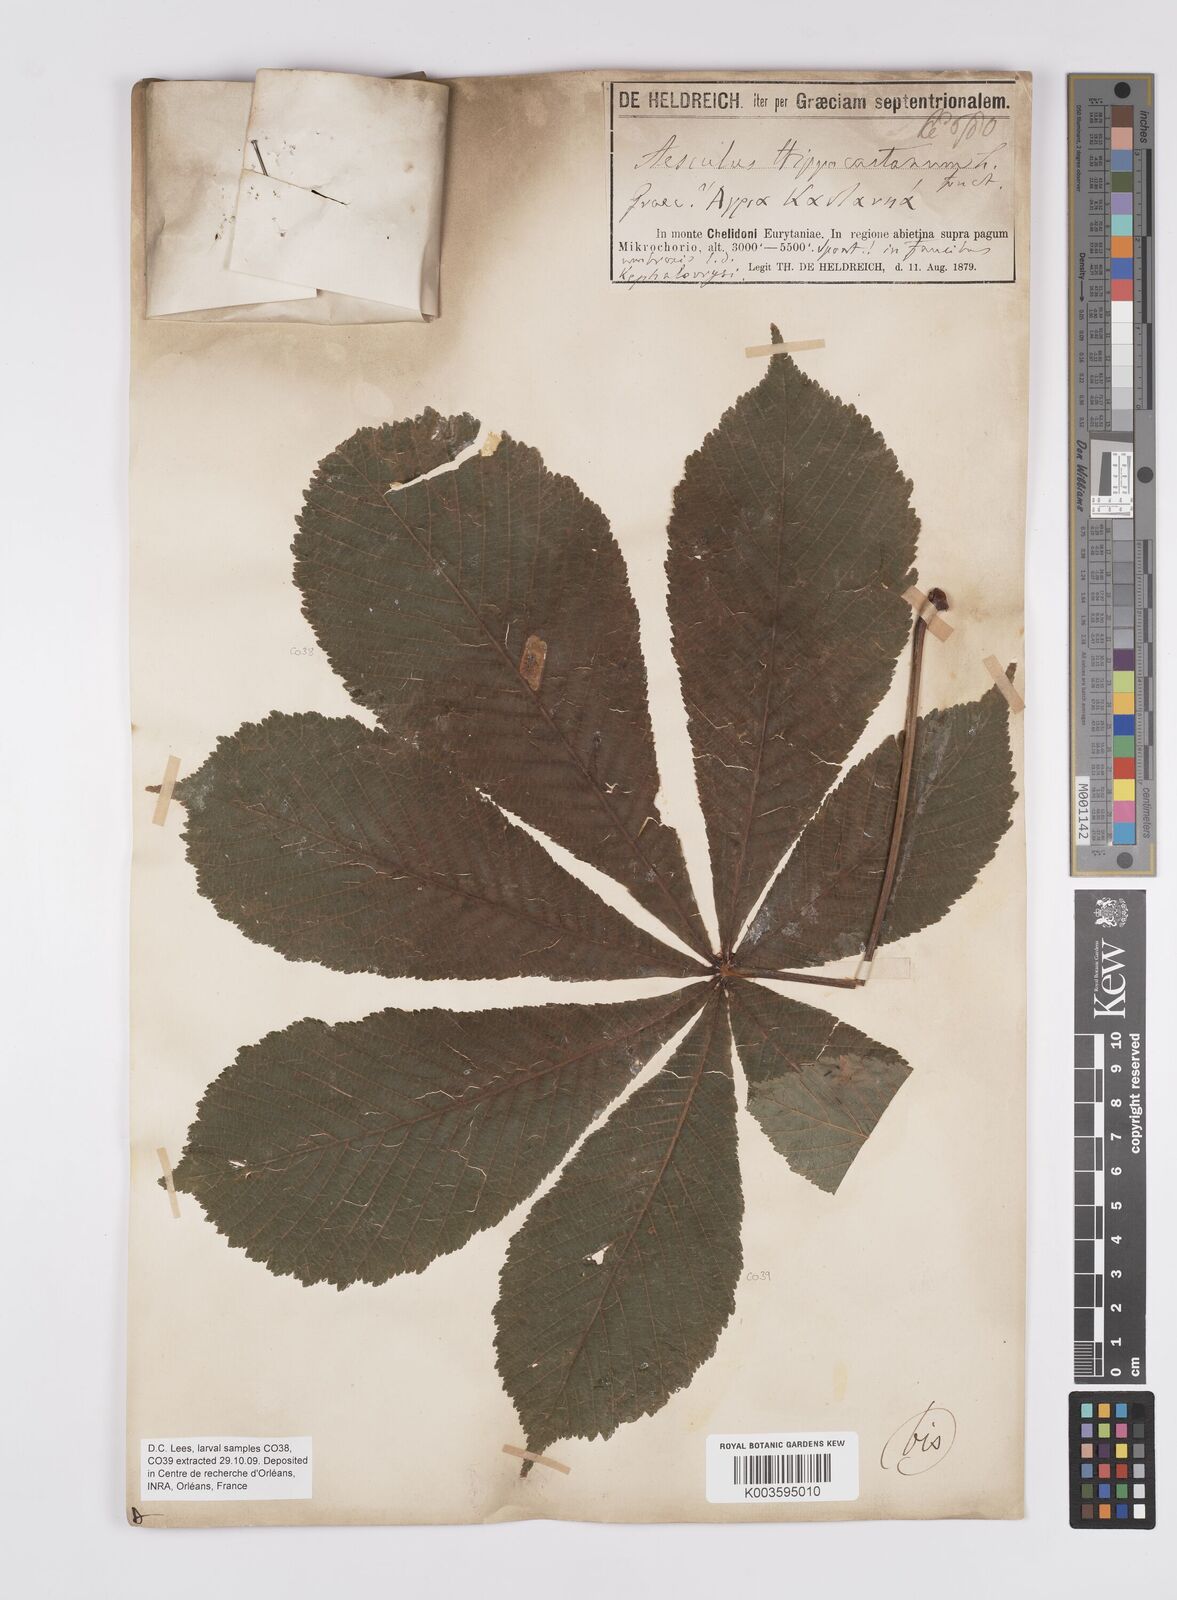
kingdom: Plantae
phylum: Tracheophyta
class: Magnoliopsida
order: Sapindales
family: Sapindaceae
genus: Aesculus
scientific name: Aesculus hippocastanum
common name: Horse-chestnut
